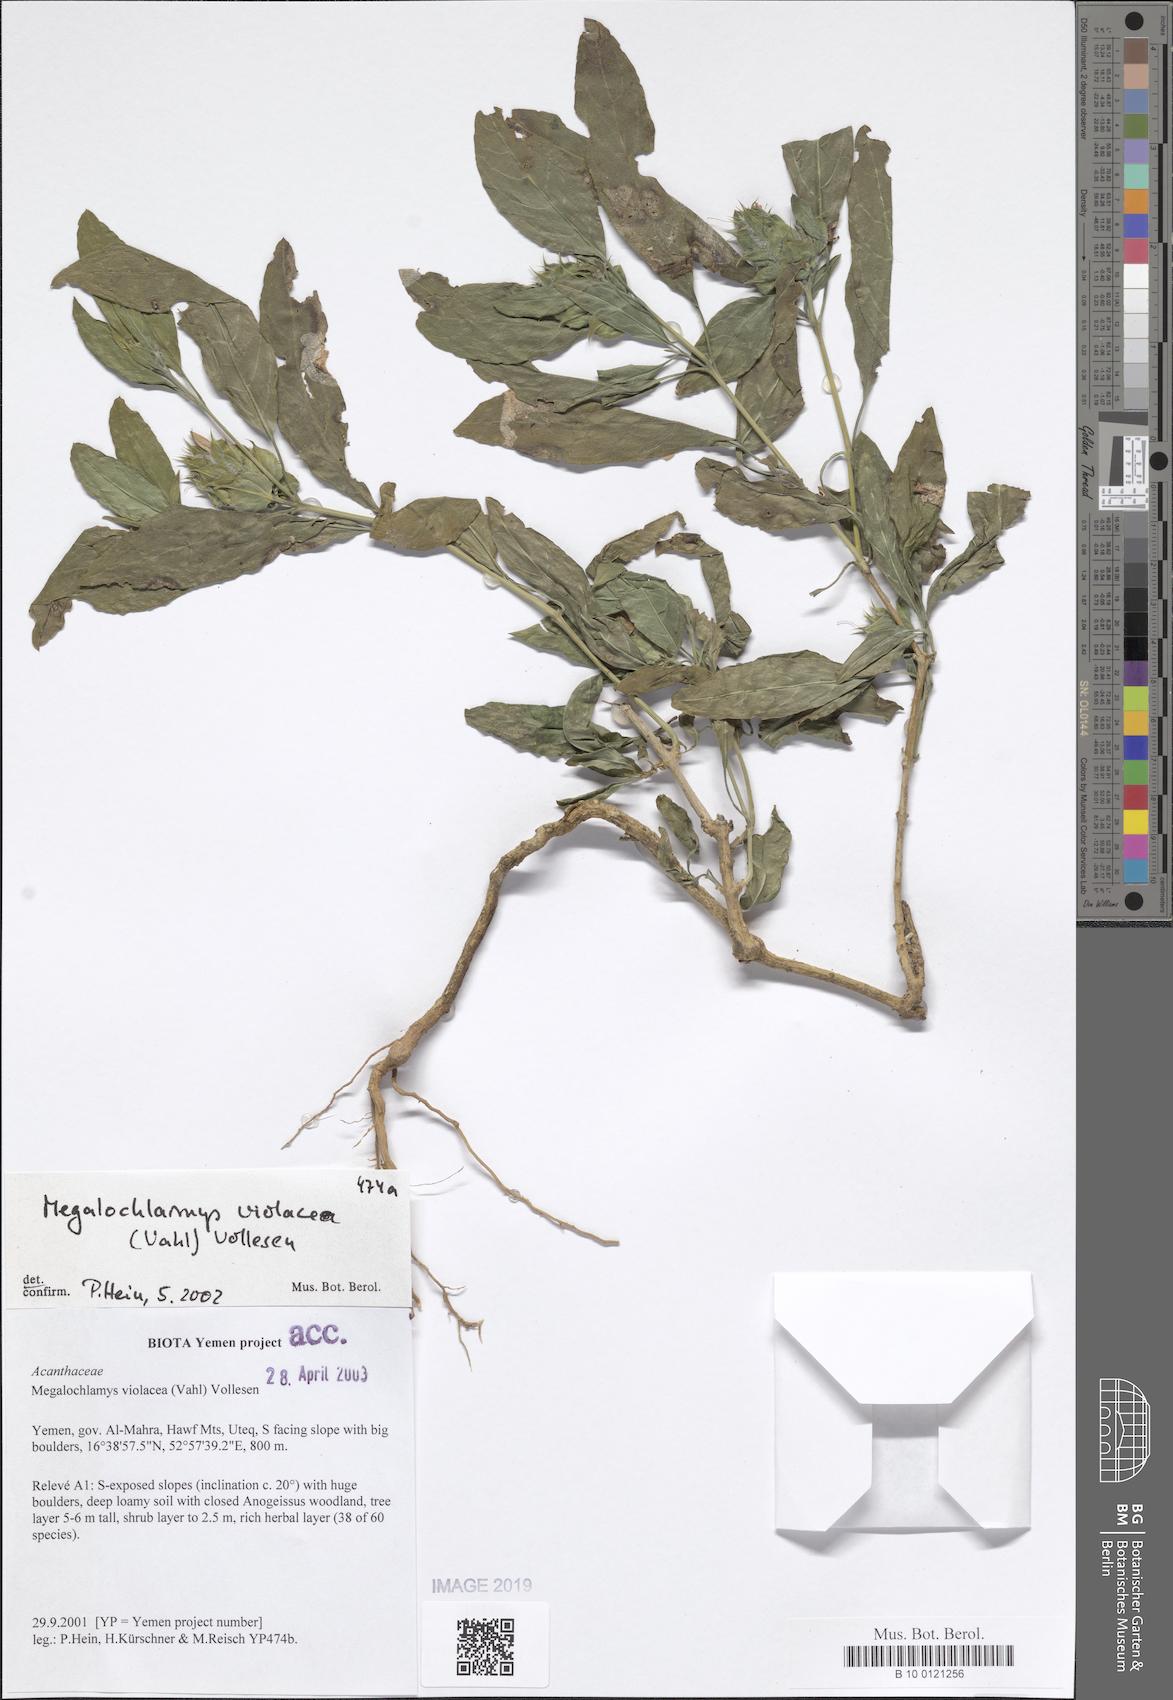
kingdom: Plantae
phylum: Tracheophyta
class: Magnoliopsida
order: Lamiales
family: Acanthaceae
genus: Megalochlamys
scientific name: Megalochlamys violacea
